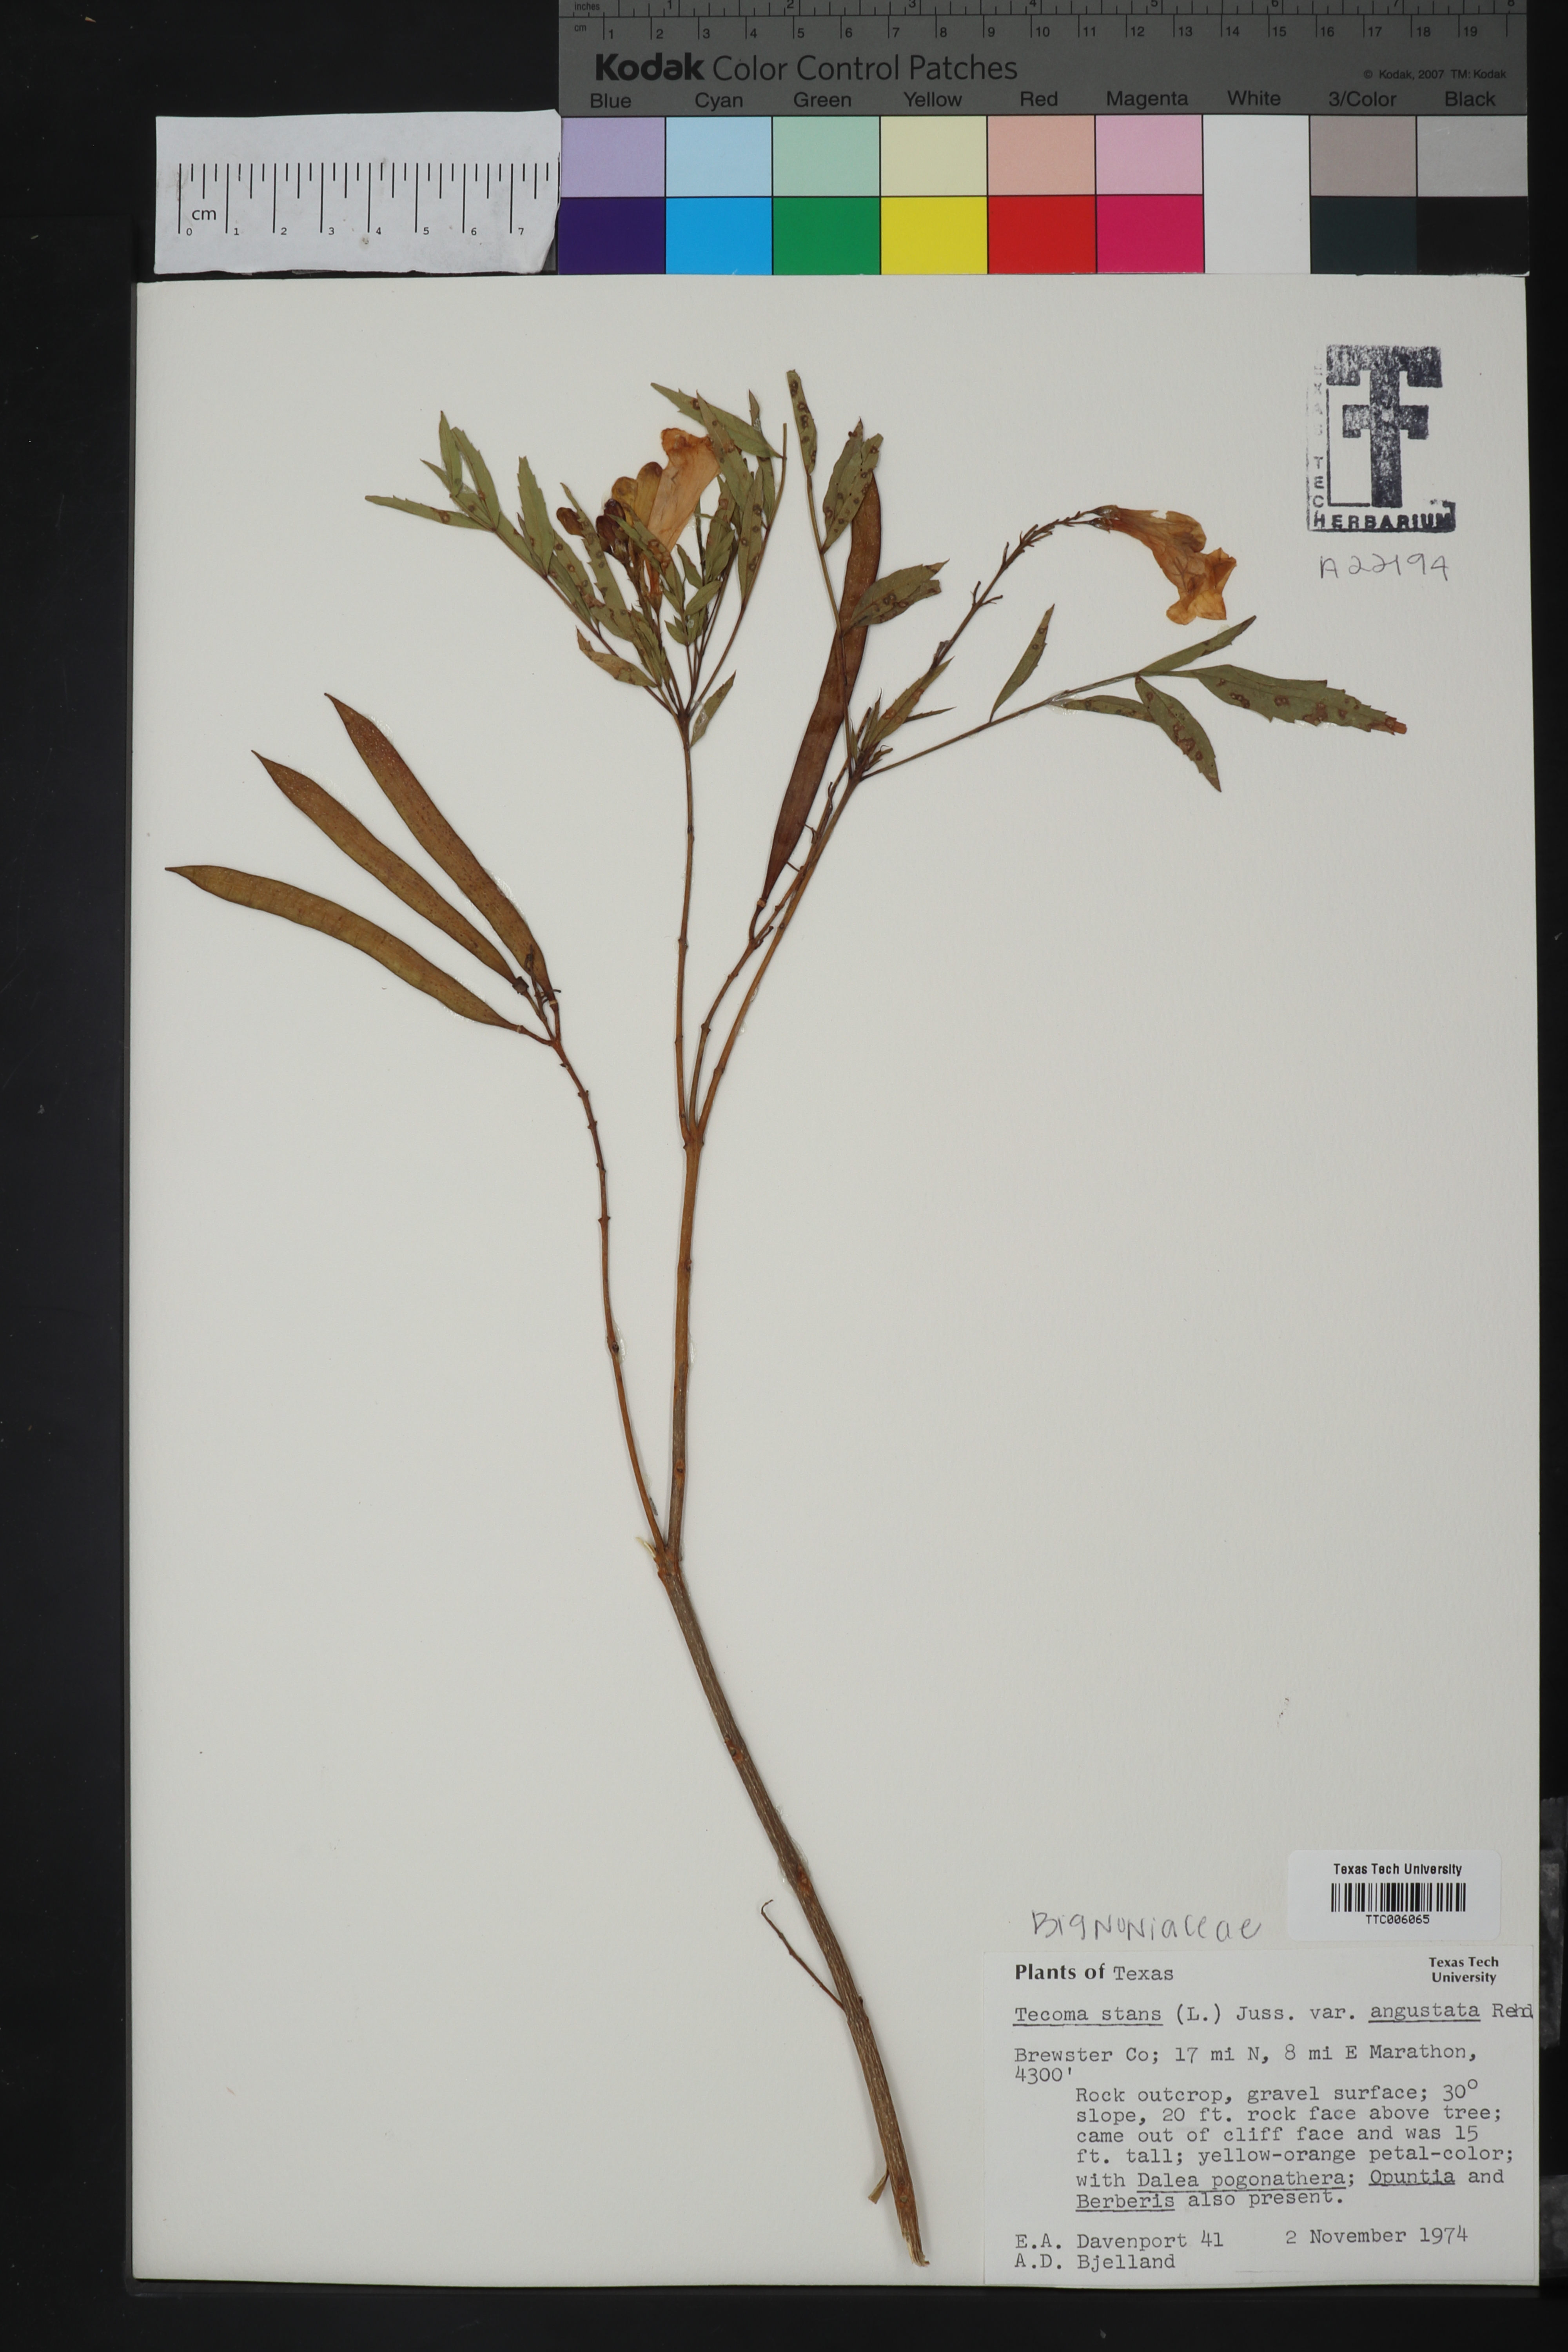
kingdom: Plantae
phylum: Tracheophyta
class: Magnoliopsida
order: Lamiales
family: Bignoniaceae
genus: Tecoma
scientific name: Tecoma stans
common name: Yellow trumpetbush
